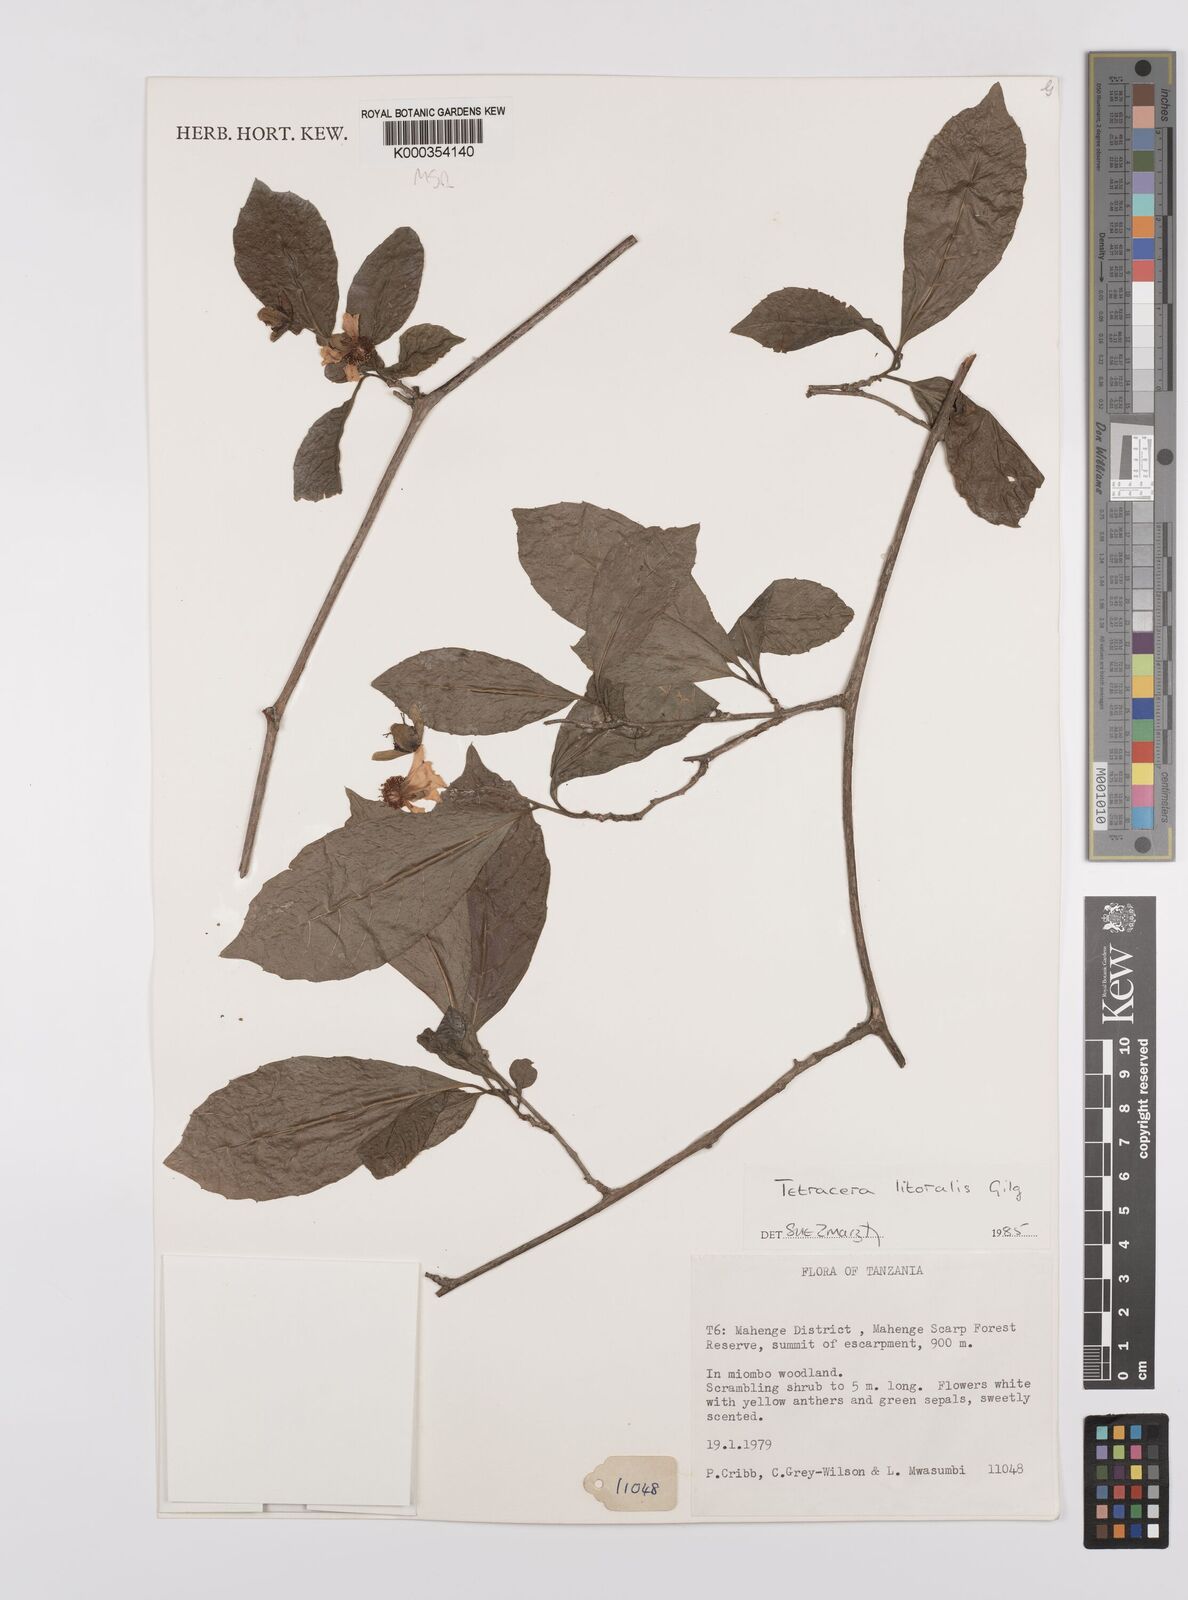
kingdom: Plantae
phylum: Tracheophyta
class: Magnoliopsida
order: Dilleniales
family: Dilleniaceae
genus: Tetracera
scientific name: Tetracera litoralis
